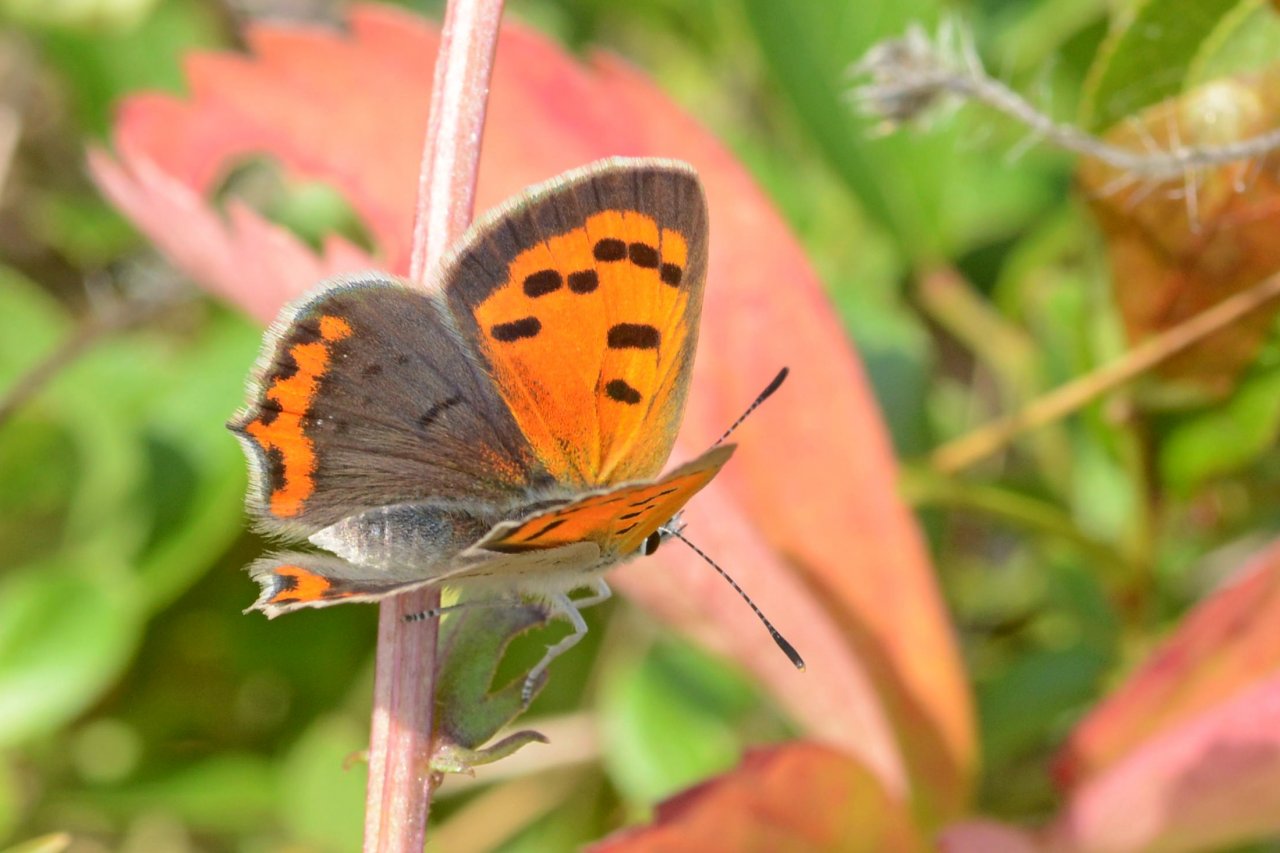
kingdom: Animalia
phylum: Arthropoda
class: Insecta
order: Lepidoptera
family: Lycaenidae
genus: Lycaena
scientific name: Lycaena phlaeas
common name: American Copper
